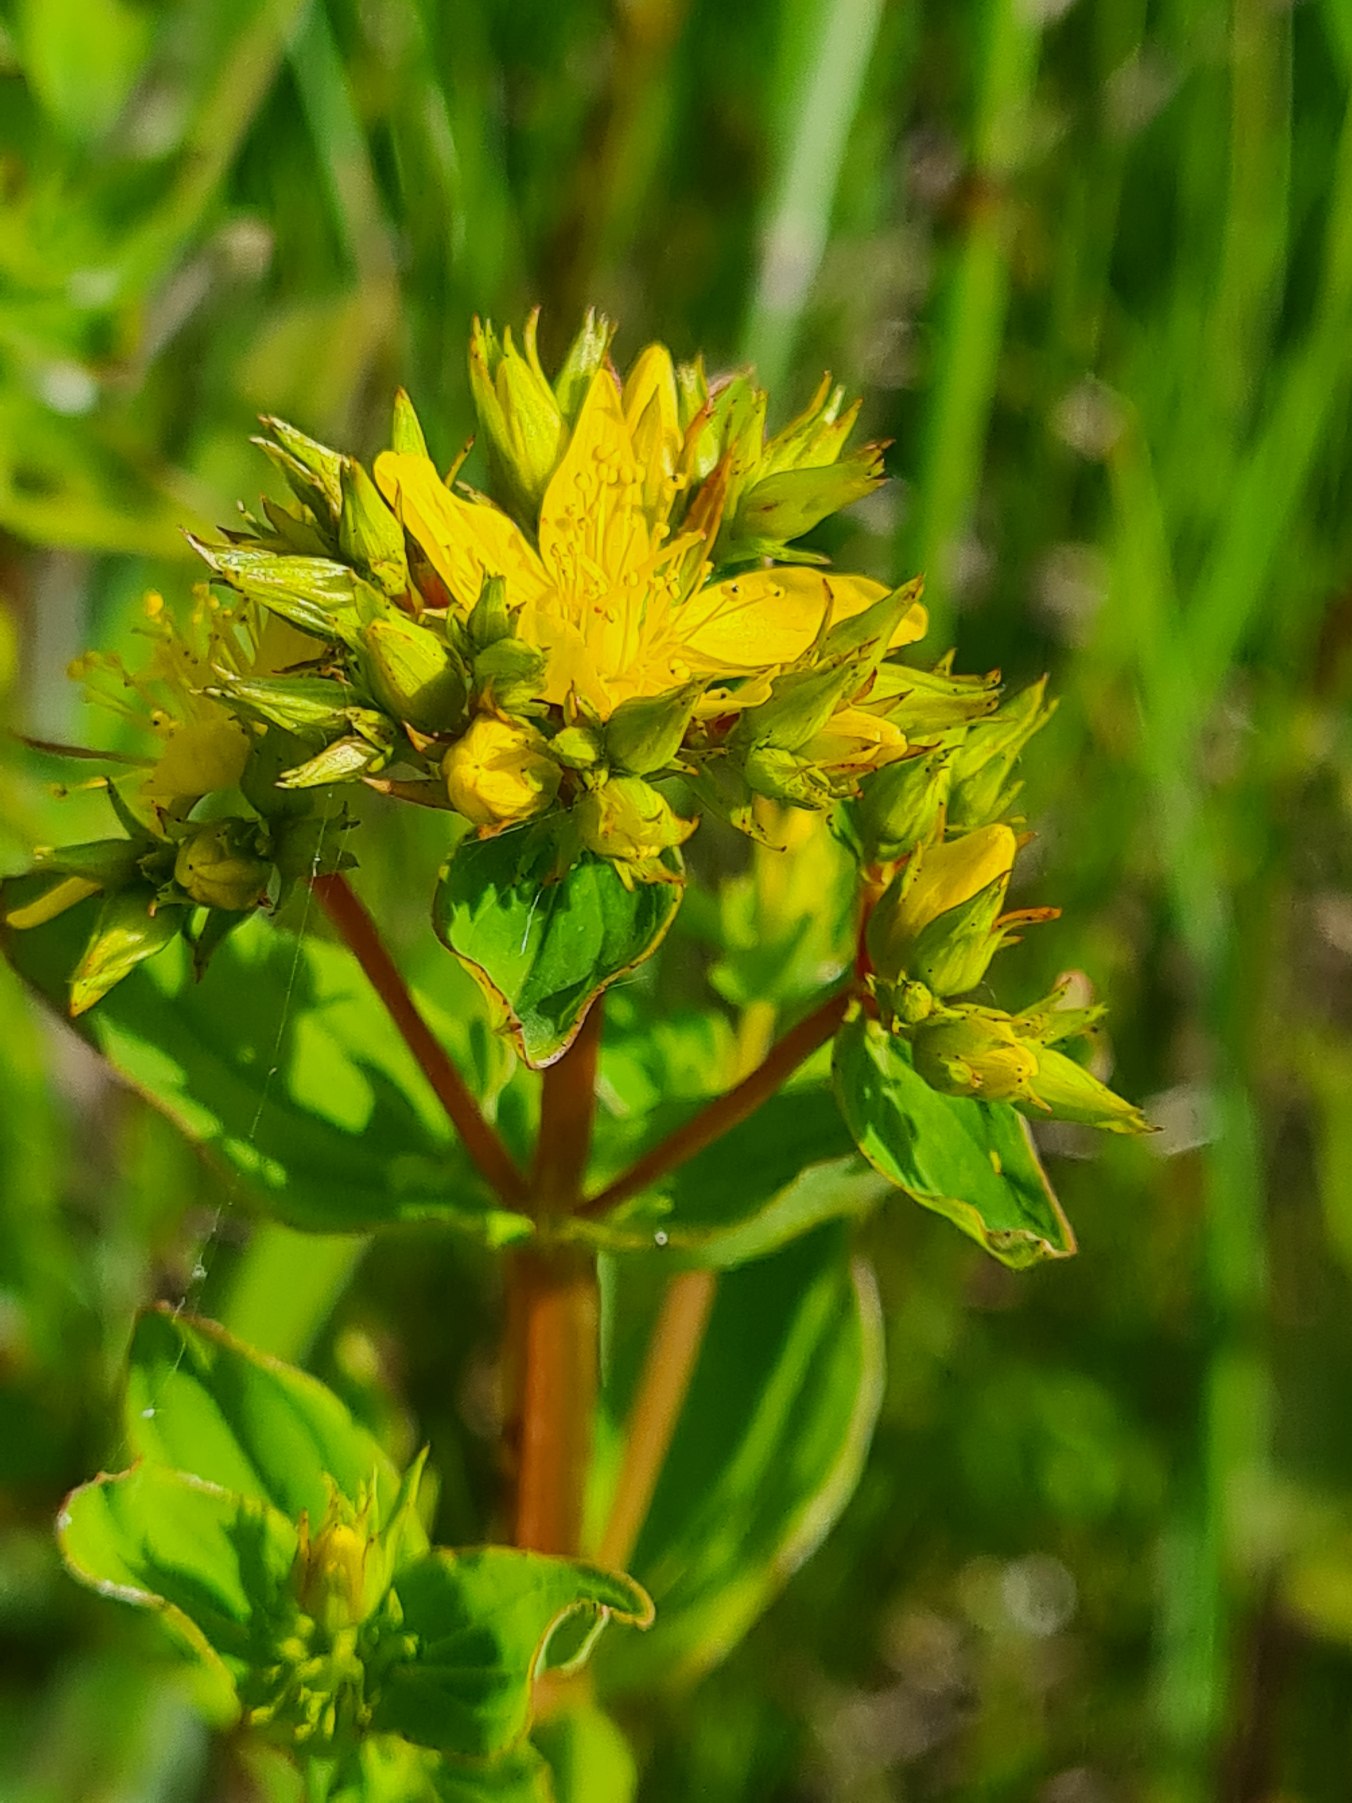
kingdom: Plantae
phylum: Tracheophyta
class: Magnoliopsida
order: Malpighiales
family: Hypericaceae
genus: Hypericum
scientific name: Hypericum tetrapterum
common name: Vinget perikon
